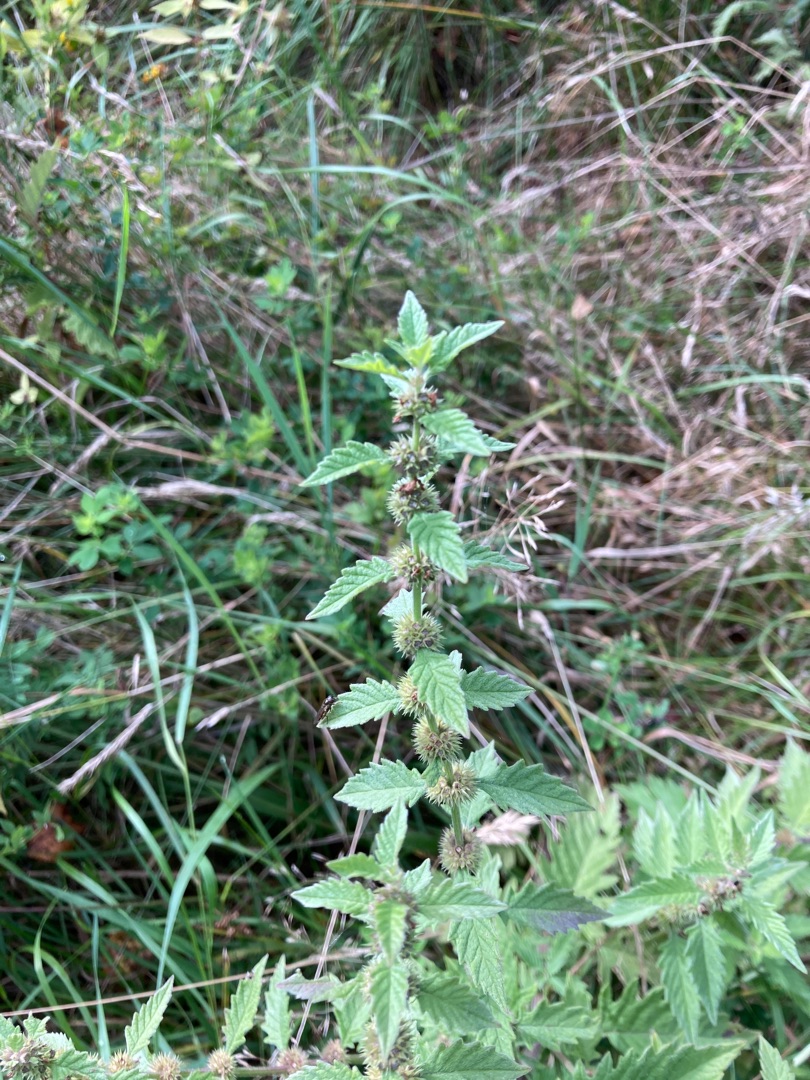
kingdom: Plantae
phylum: Tracheophyta
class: Magnoliopsida
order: Lamiales
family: Lamiaceae
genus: Lycopus
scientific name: Lycopus europaeus
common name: Sværtevæld
